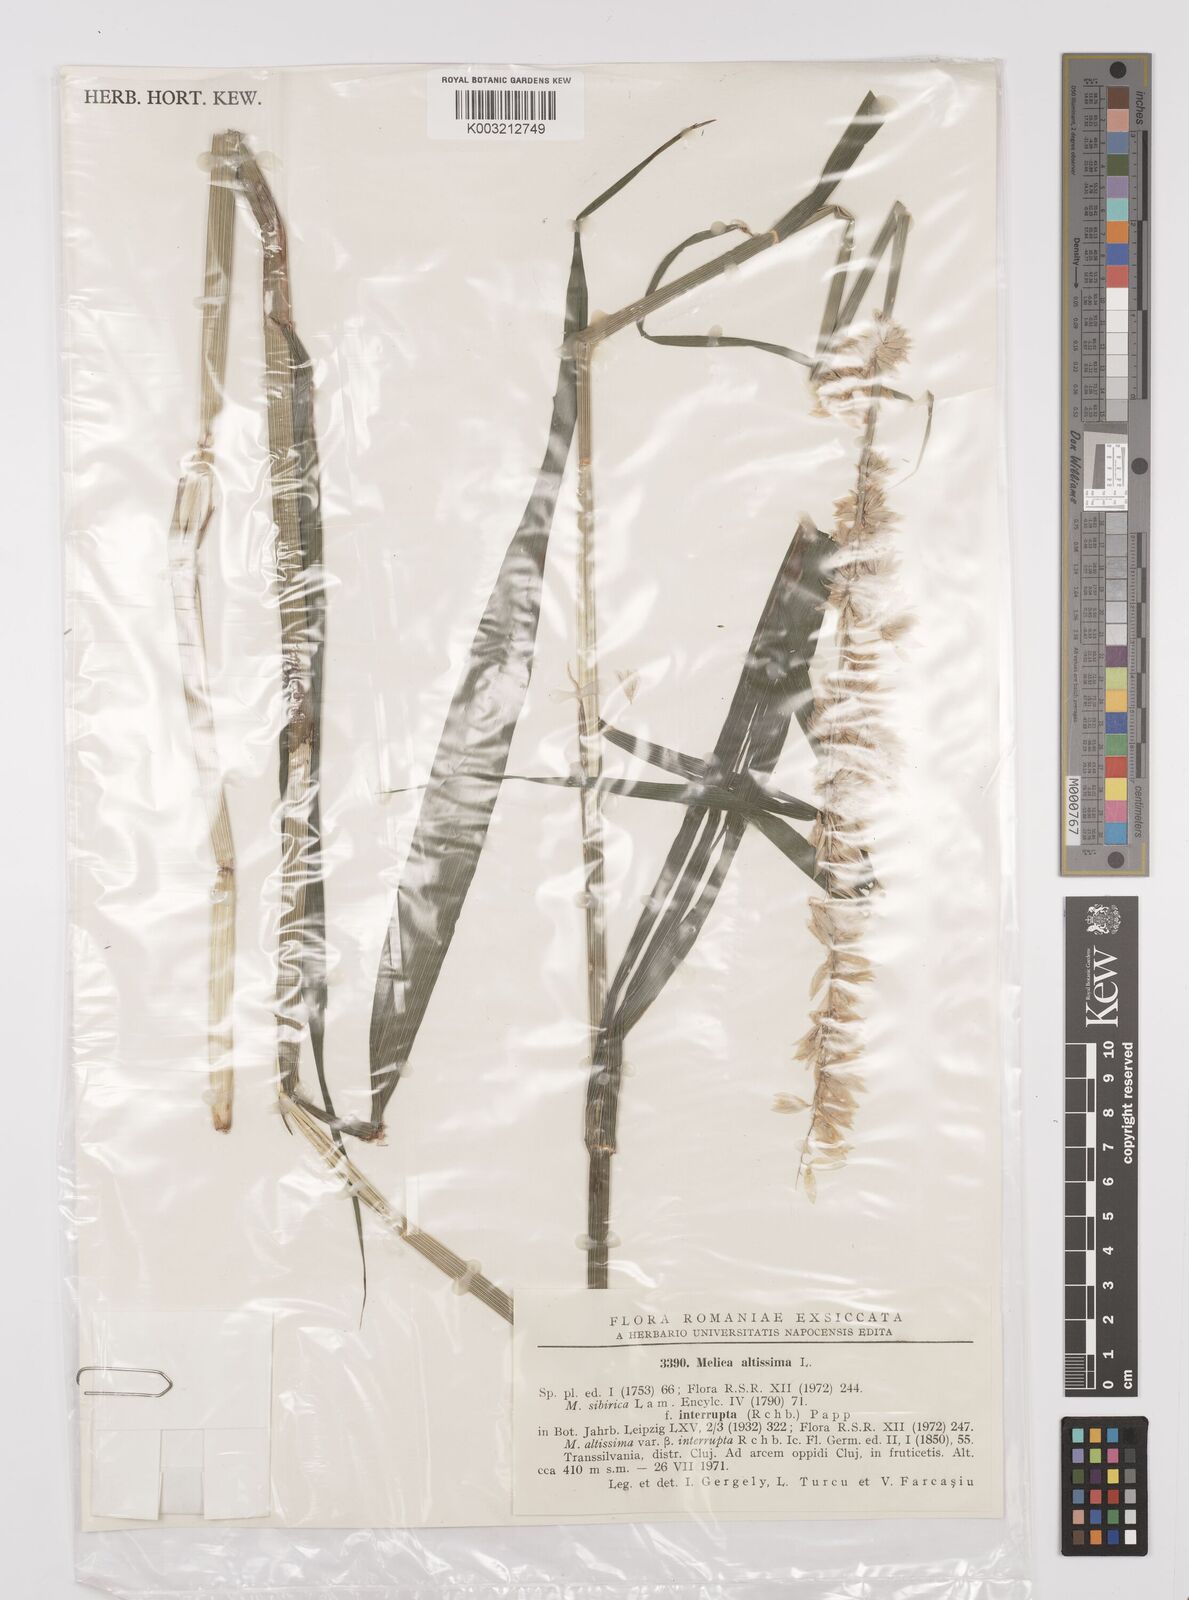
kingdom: Plantae
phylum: Tracheophyta
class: Liliopsida
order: Poales
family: Poaceae
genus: Melica
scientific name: Melica altissima
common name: Siberian melicgrass
